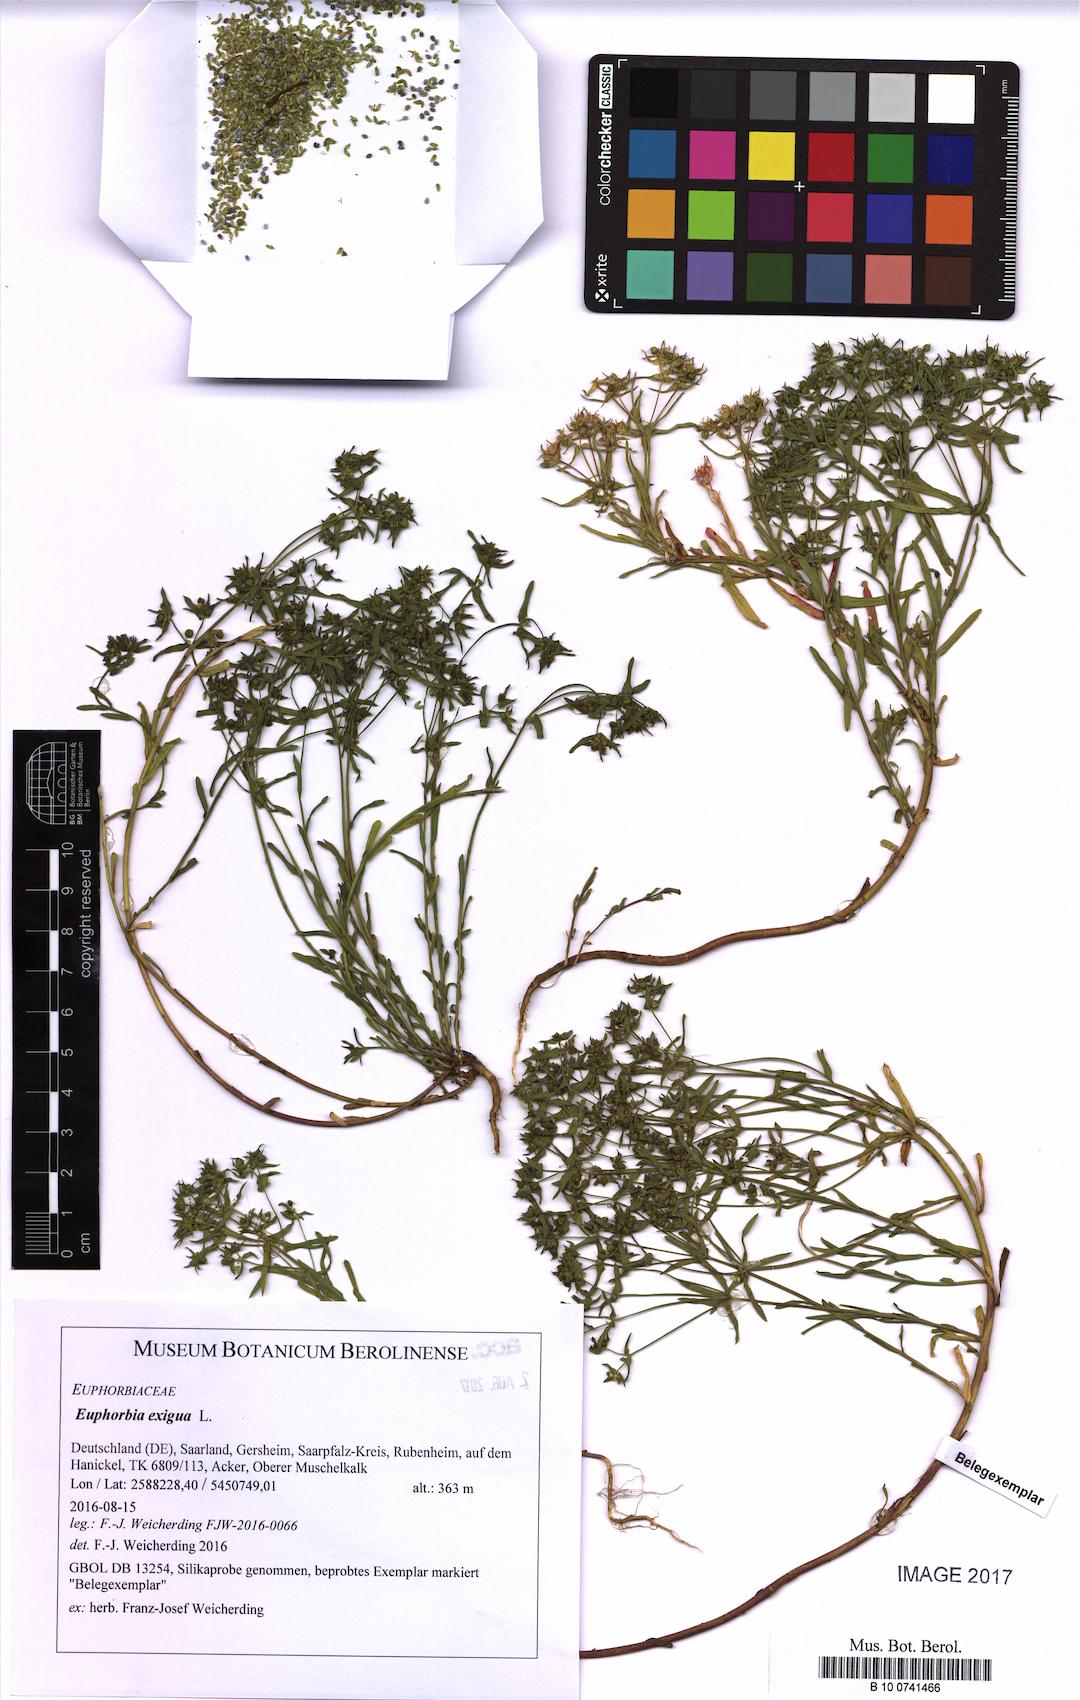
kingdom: Plantae
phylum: Tracheophyta
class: Magnoliopsida
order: Malpighiales
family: Euphorbiaceae
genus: Euphorbia
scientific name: Euphorbia exigua
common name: Dwarf spurge
